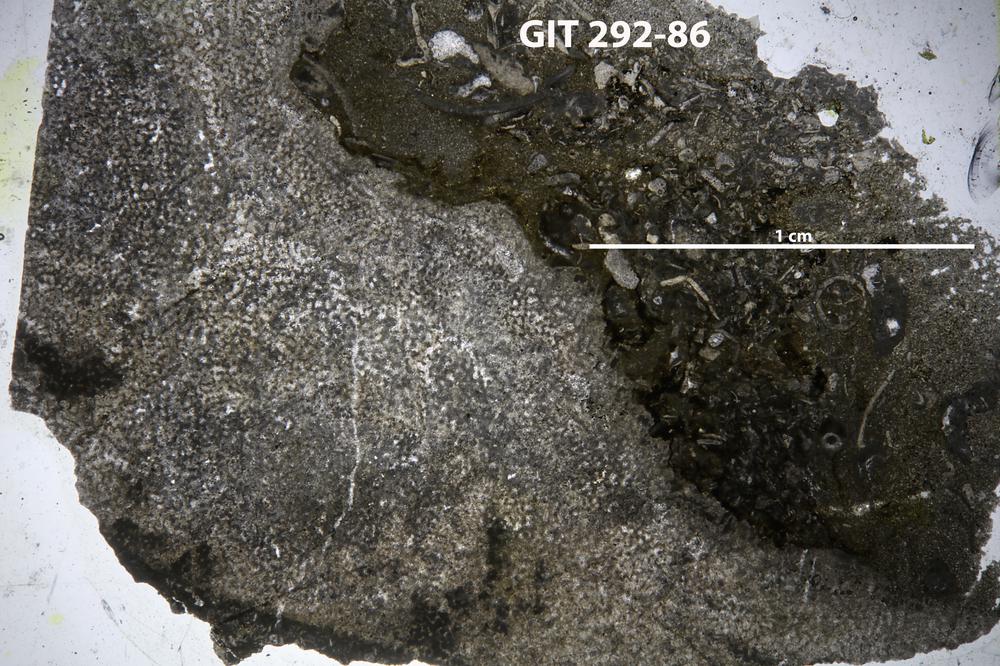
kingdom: Animalia
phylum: Porifera
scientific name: Porifera
